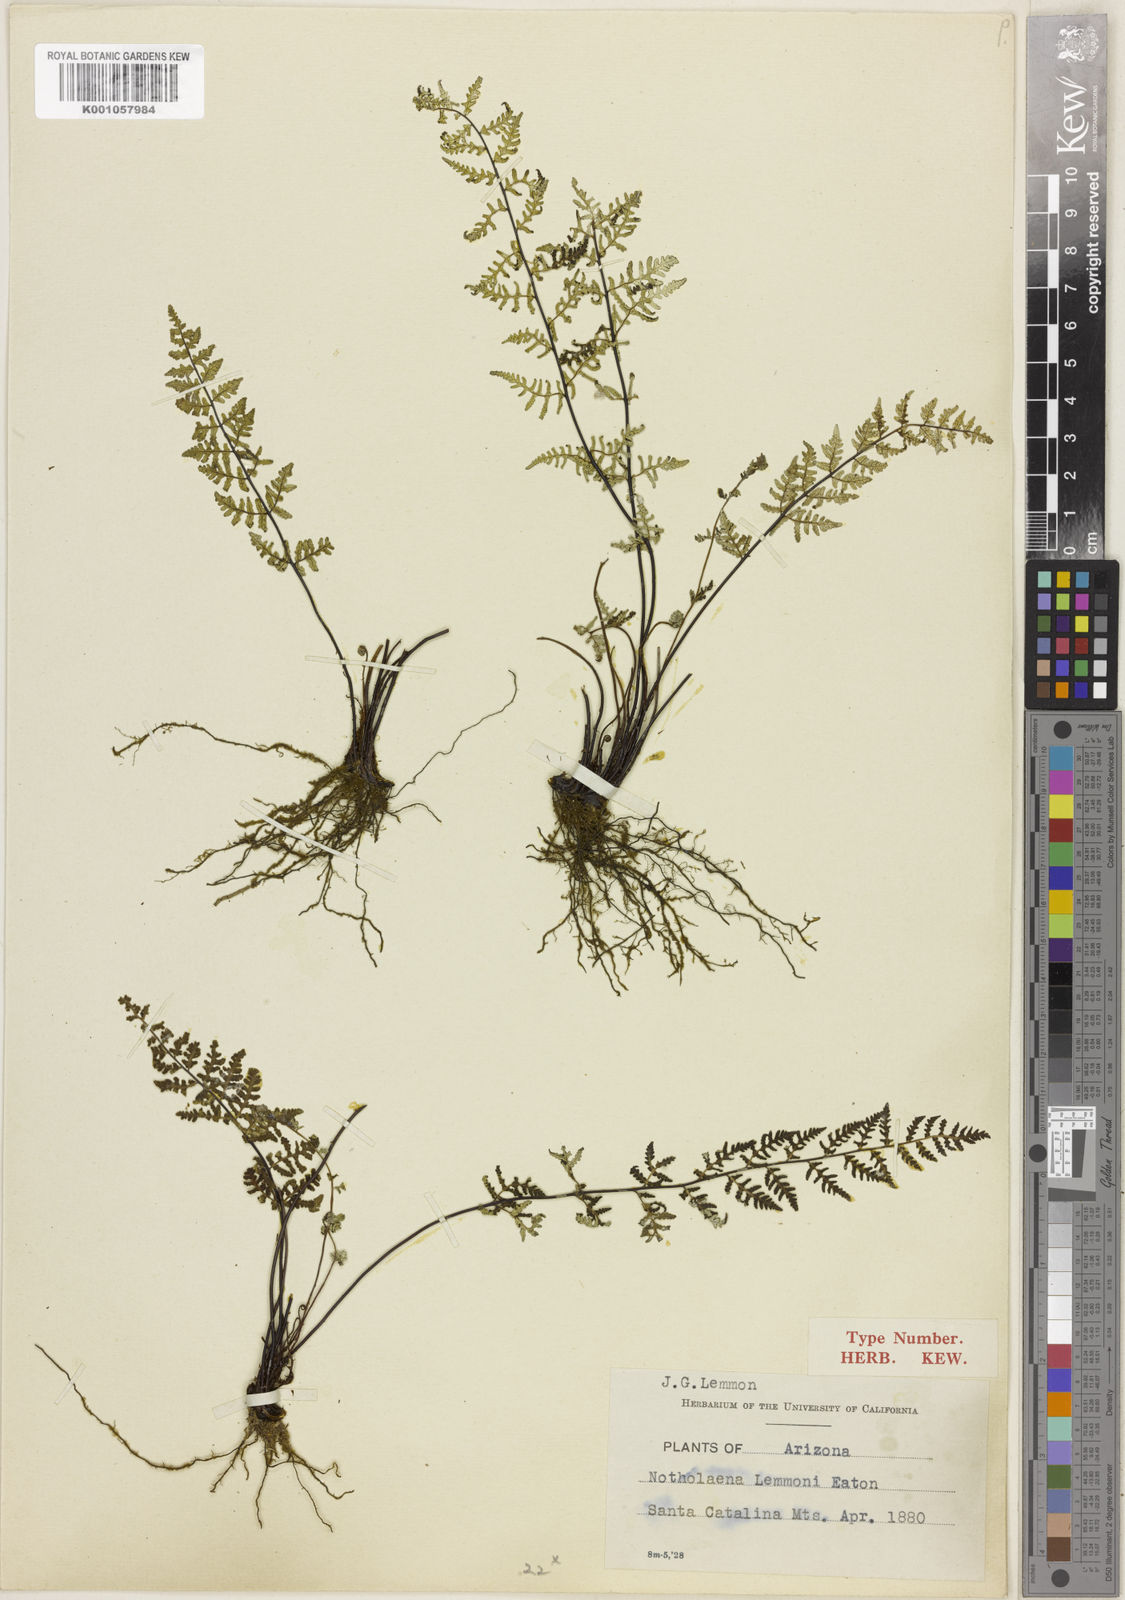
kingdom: Plantae
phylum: Tracheophyta
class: Polypodiopsida
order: Polypodiales
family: Pteridaceae
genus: Notholaena
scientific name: Notholaena lemmonii
